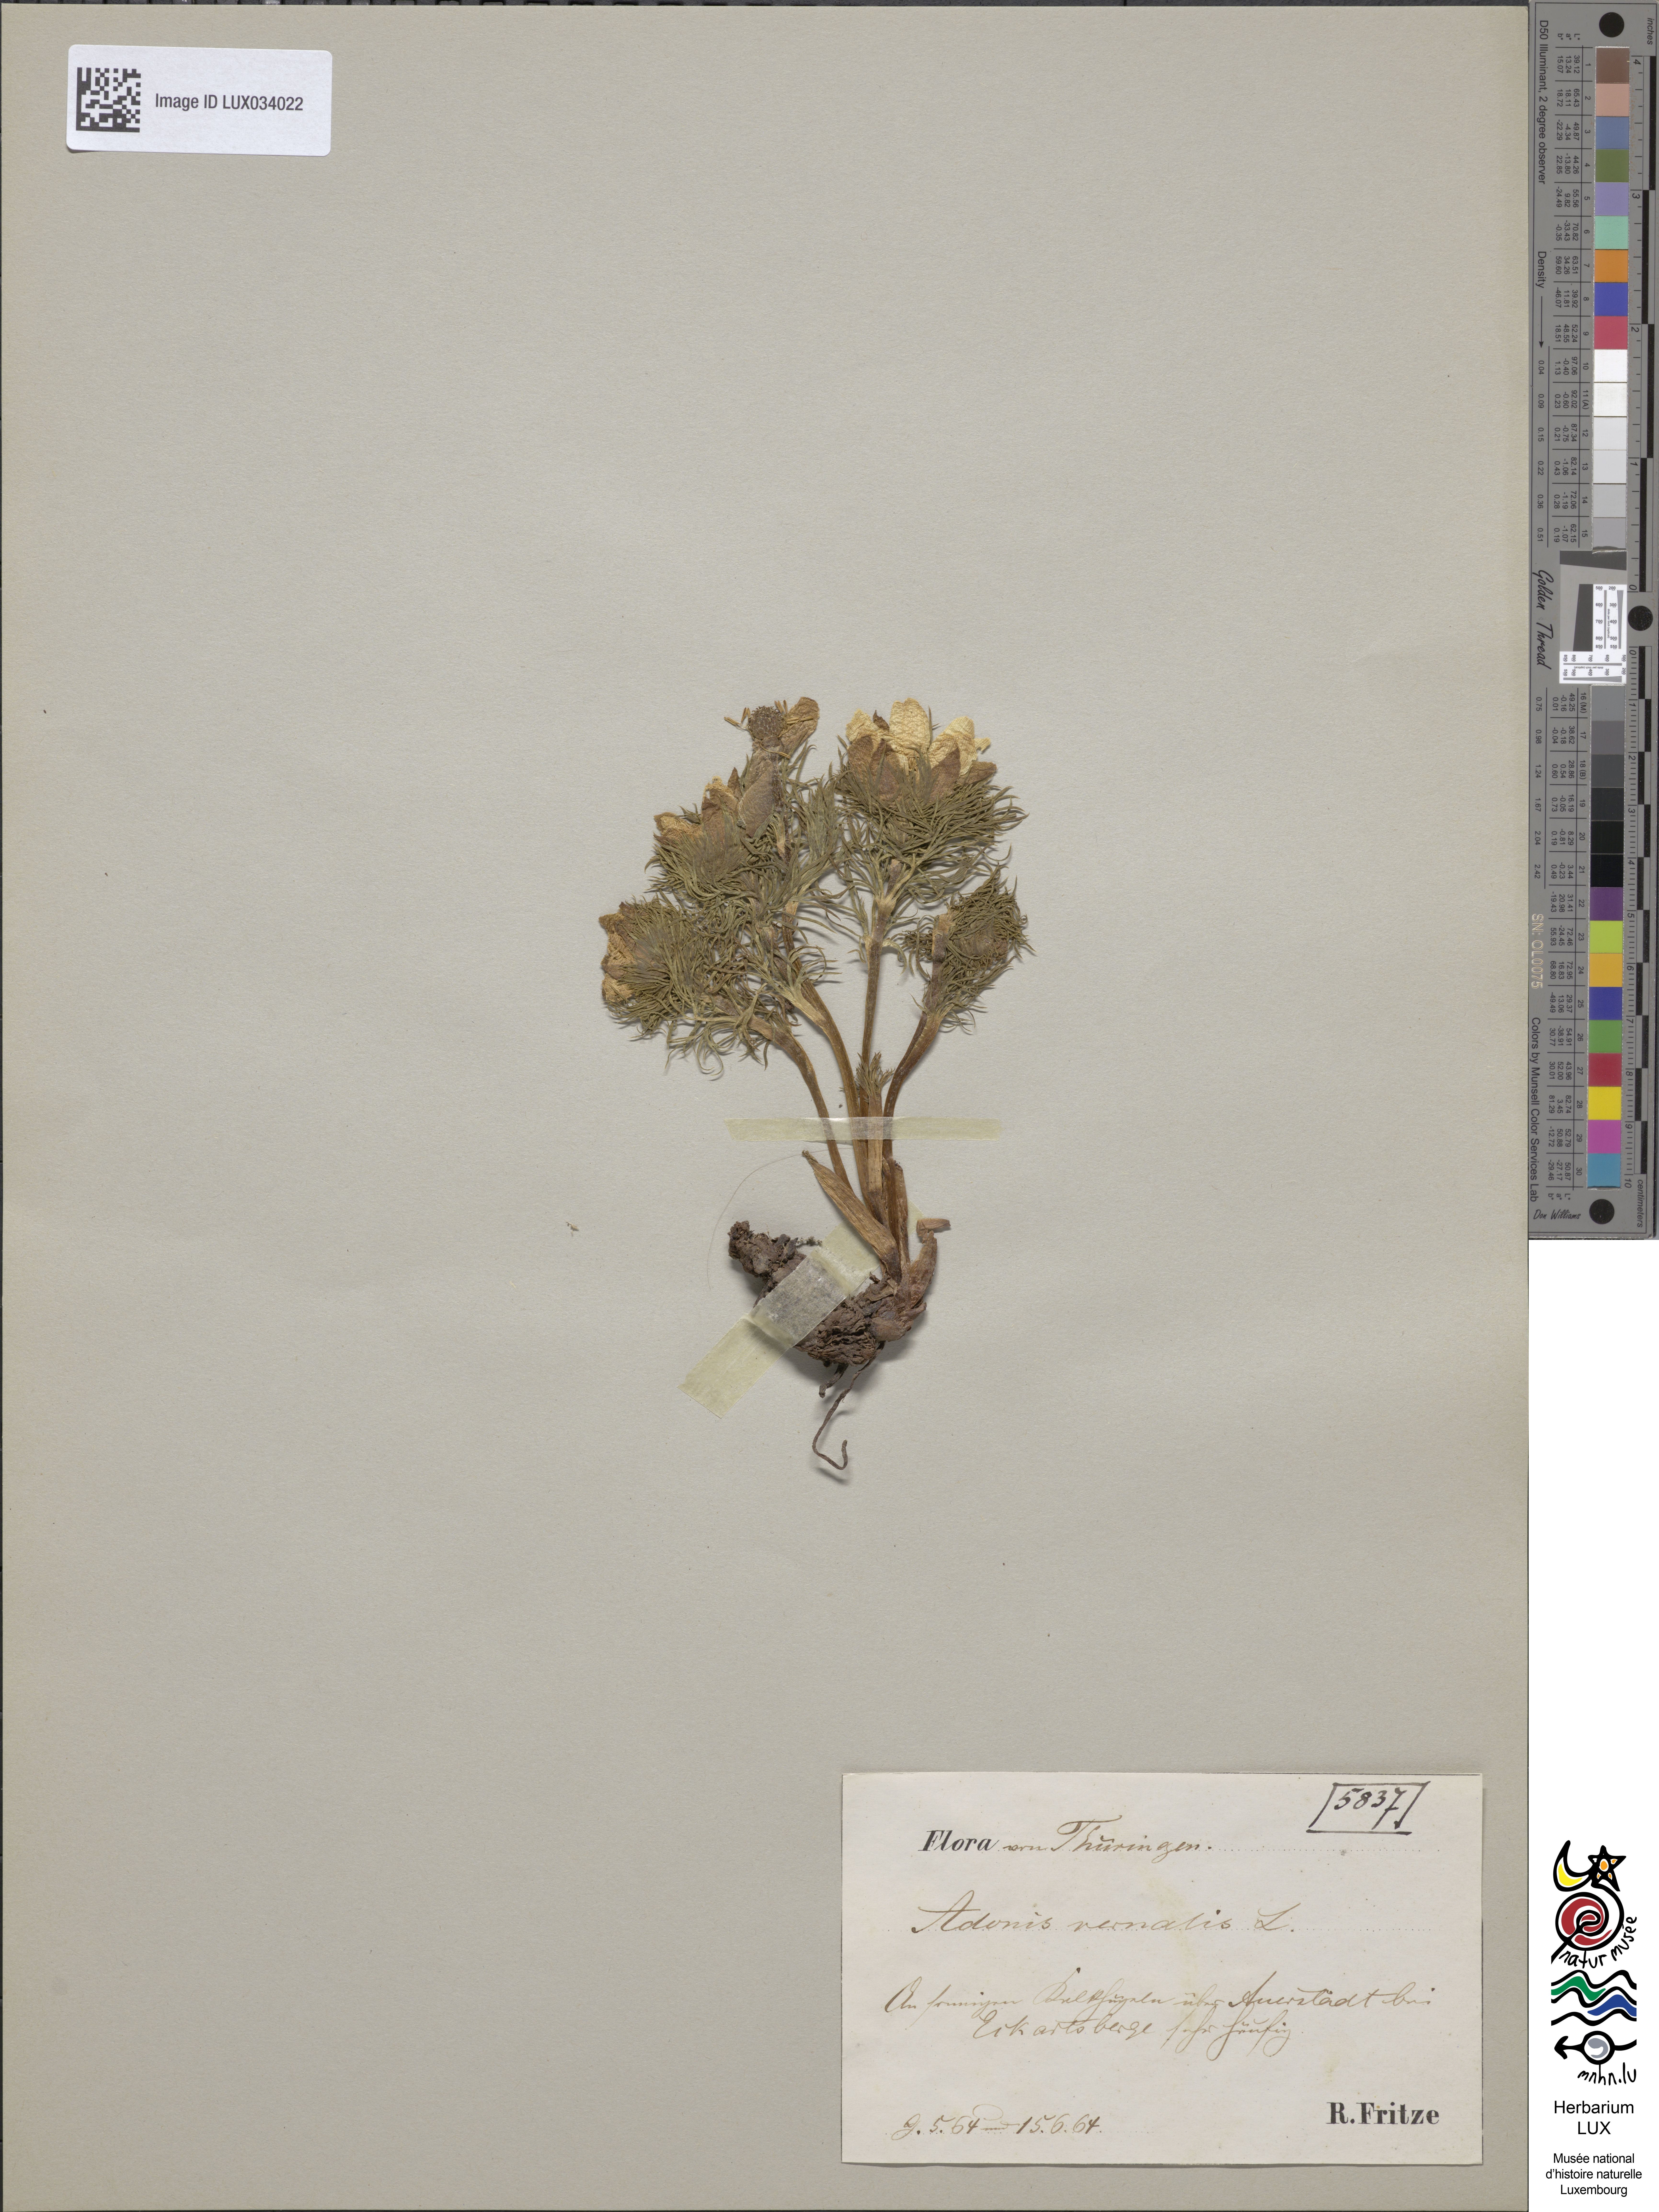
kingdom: Plantae
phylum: Tracheophyta
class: Magnoliopsida
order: Ranunculales
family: Ranunculaceae
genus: Adonis
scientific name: Adonis vernalis
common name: Yellow pheasants-eye
